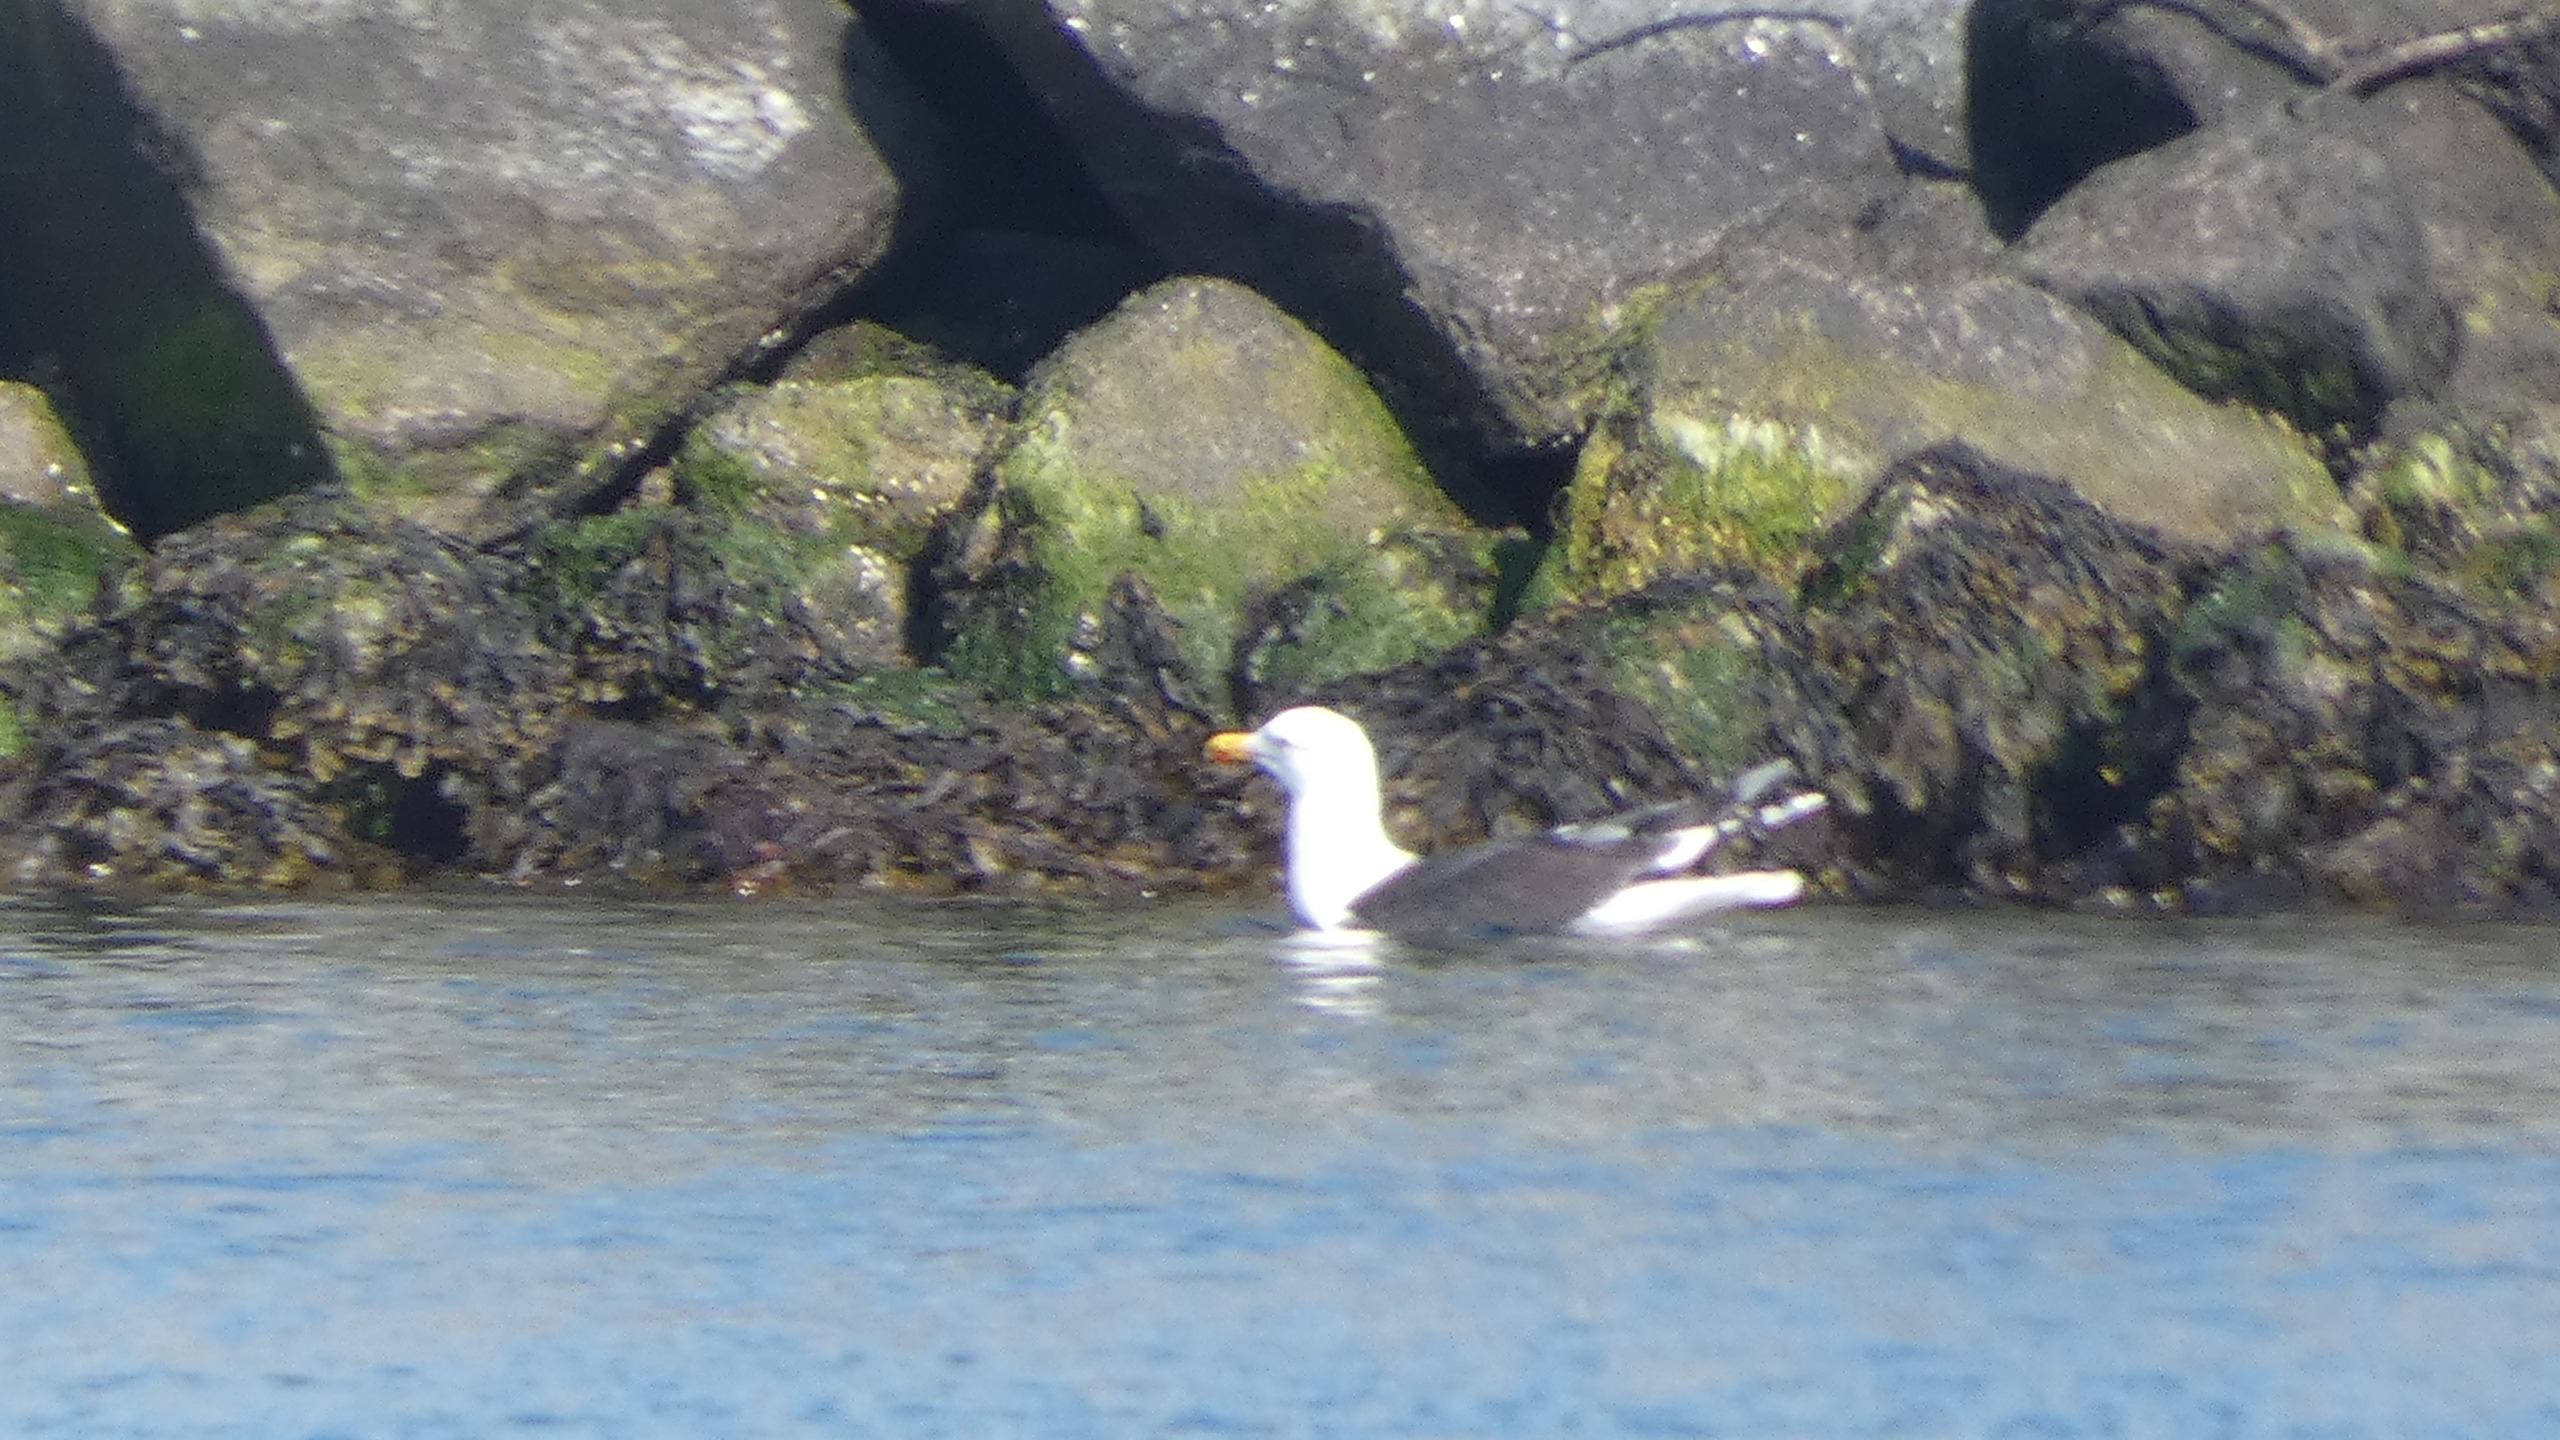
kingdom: Animalia
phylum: Chordata
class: Aves
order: Charadriiformes
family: Laridae
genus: Larus
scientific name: Larus marinus
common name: Svartbag
